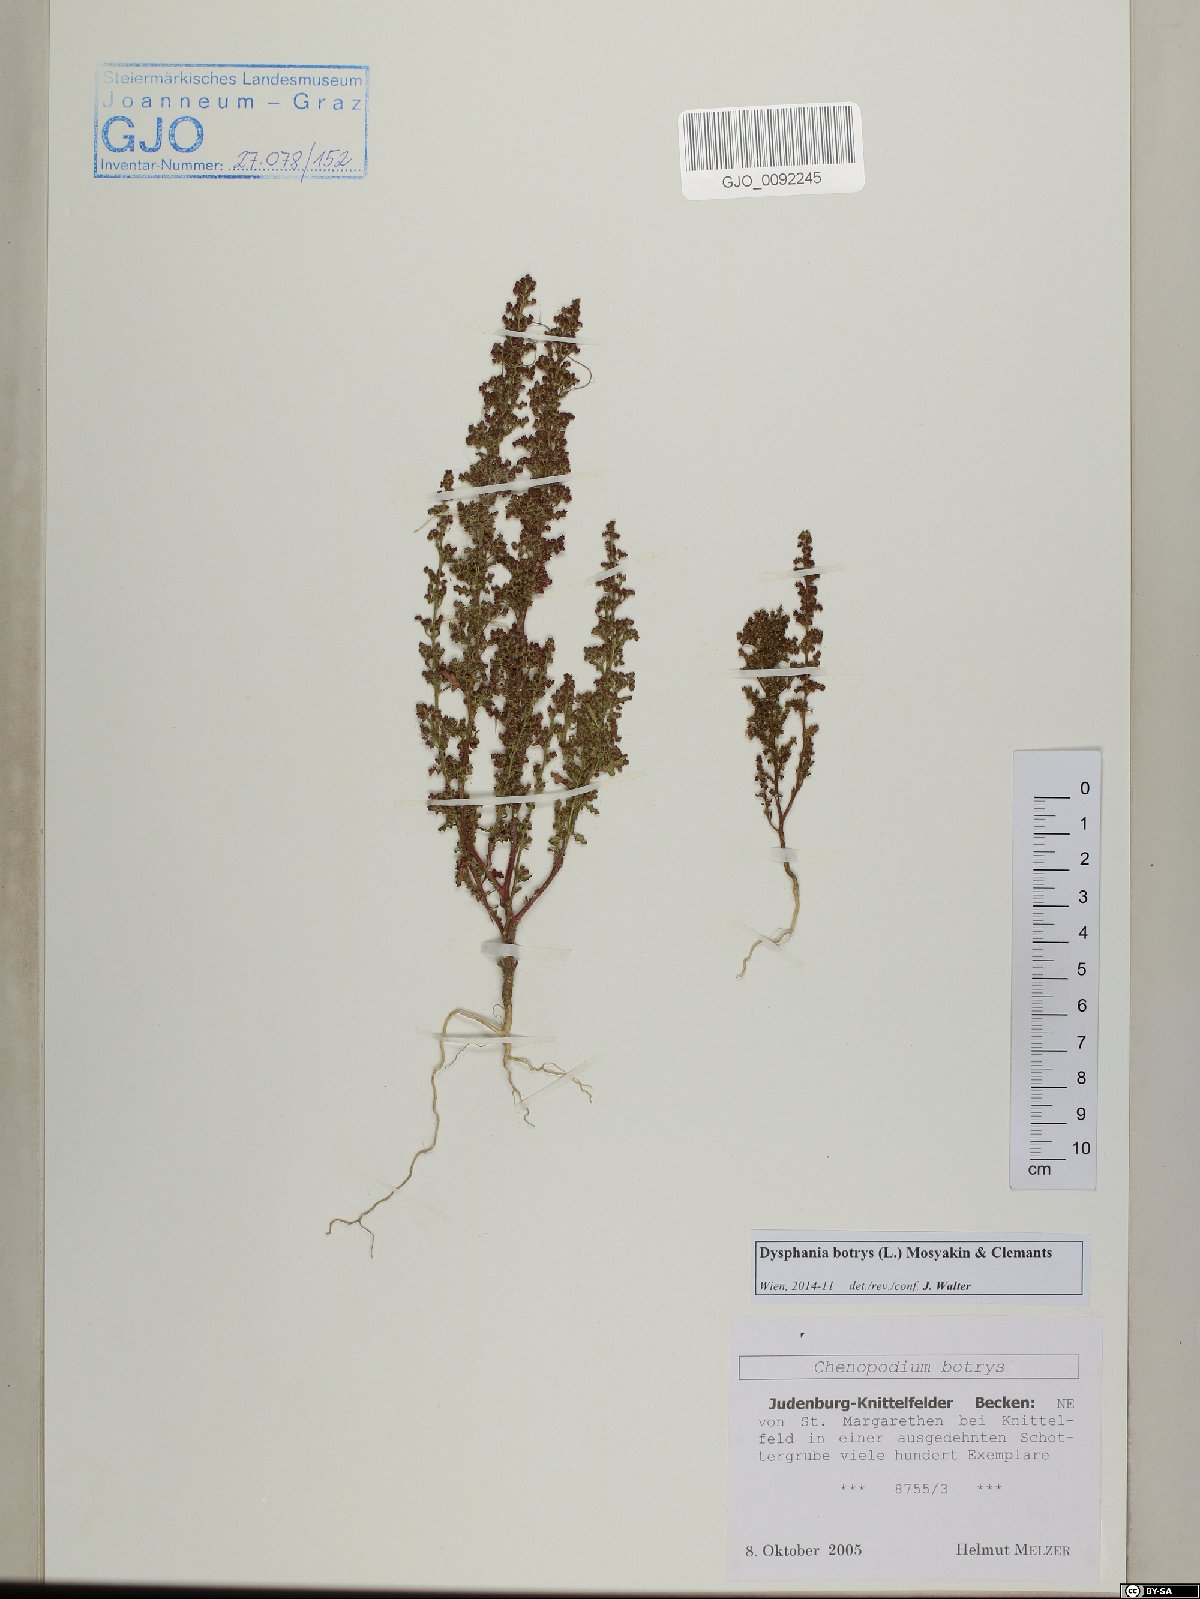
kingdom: Plantae
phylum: Tracheophyta
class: Magnoliopsida
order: Caryophyllales
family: Amaranthaceae
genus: Dysphania
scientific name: Dysphania botrys
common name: Feather-geranium
